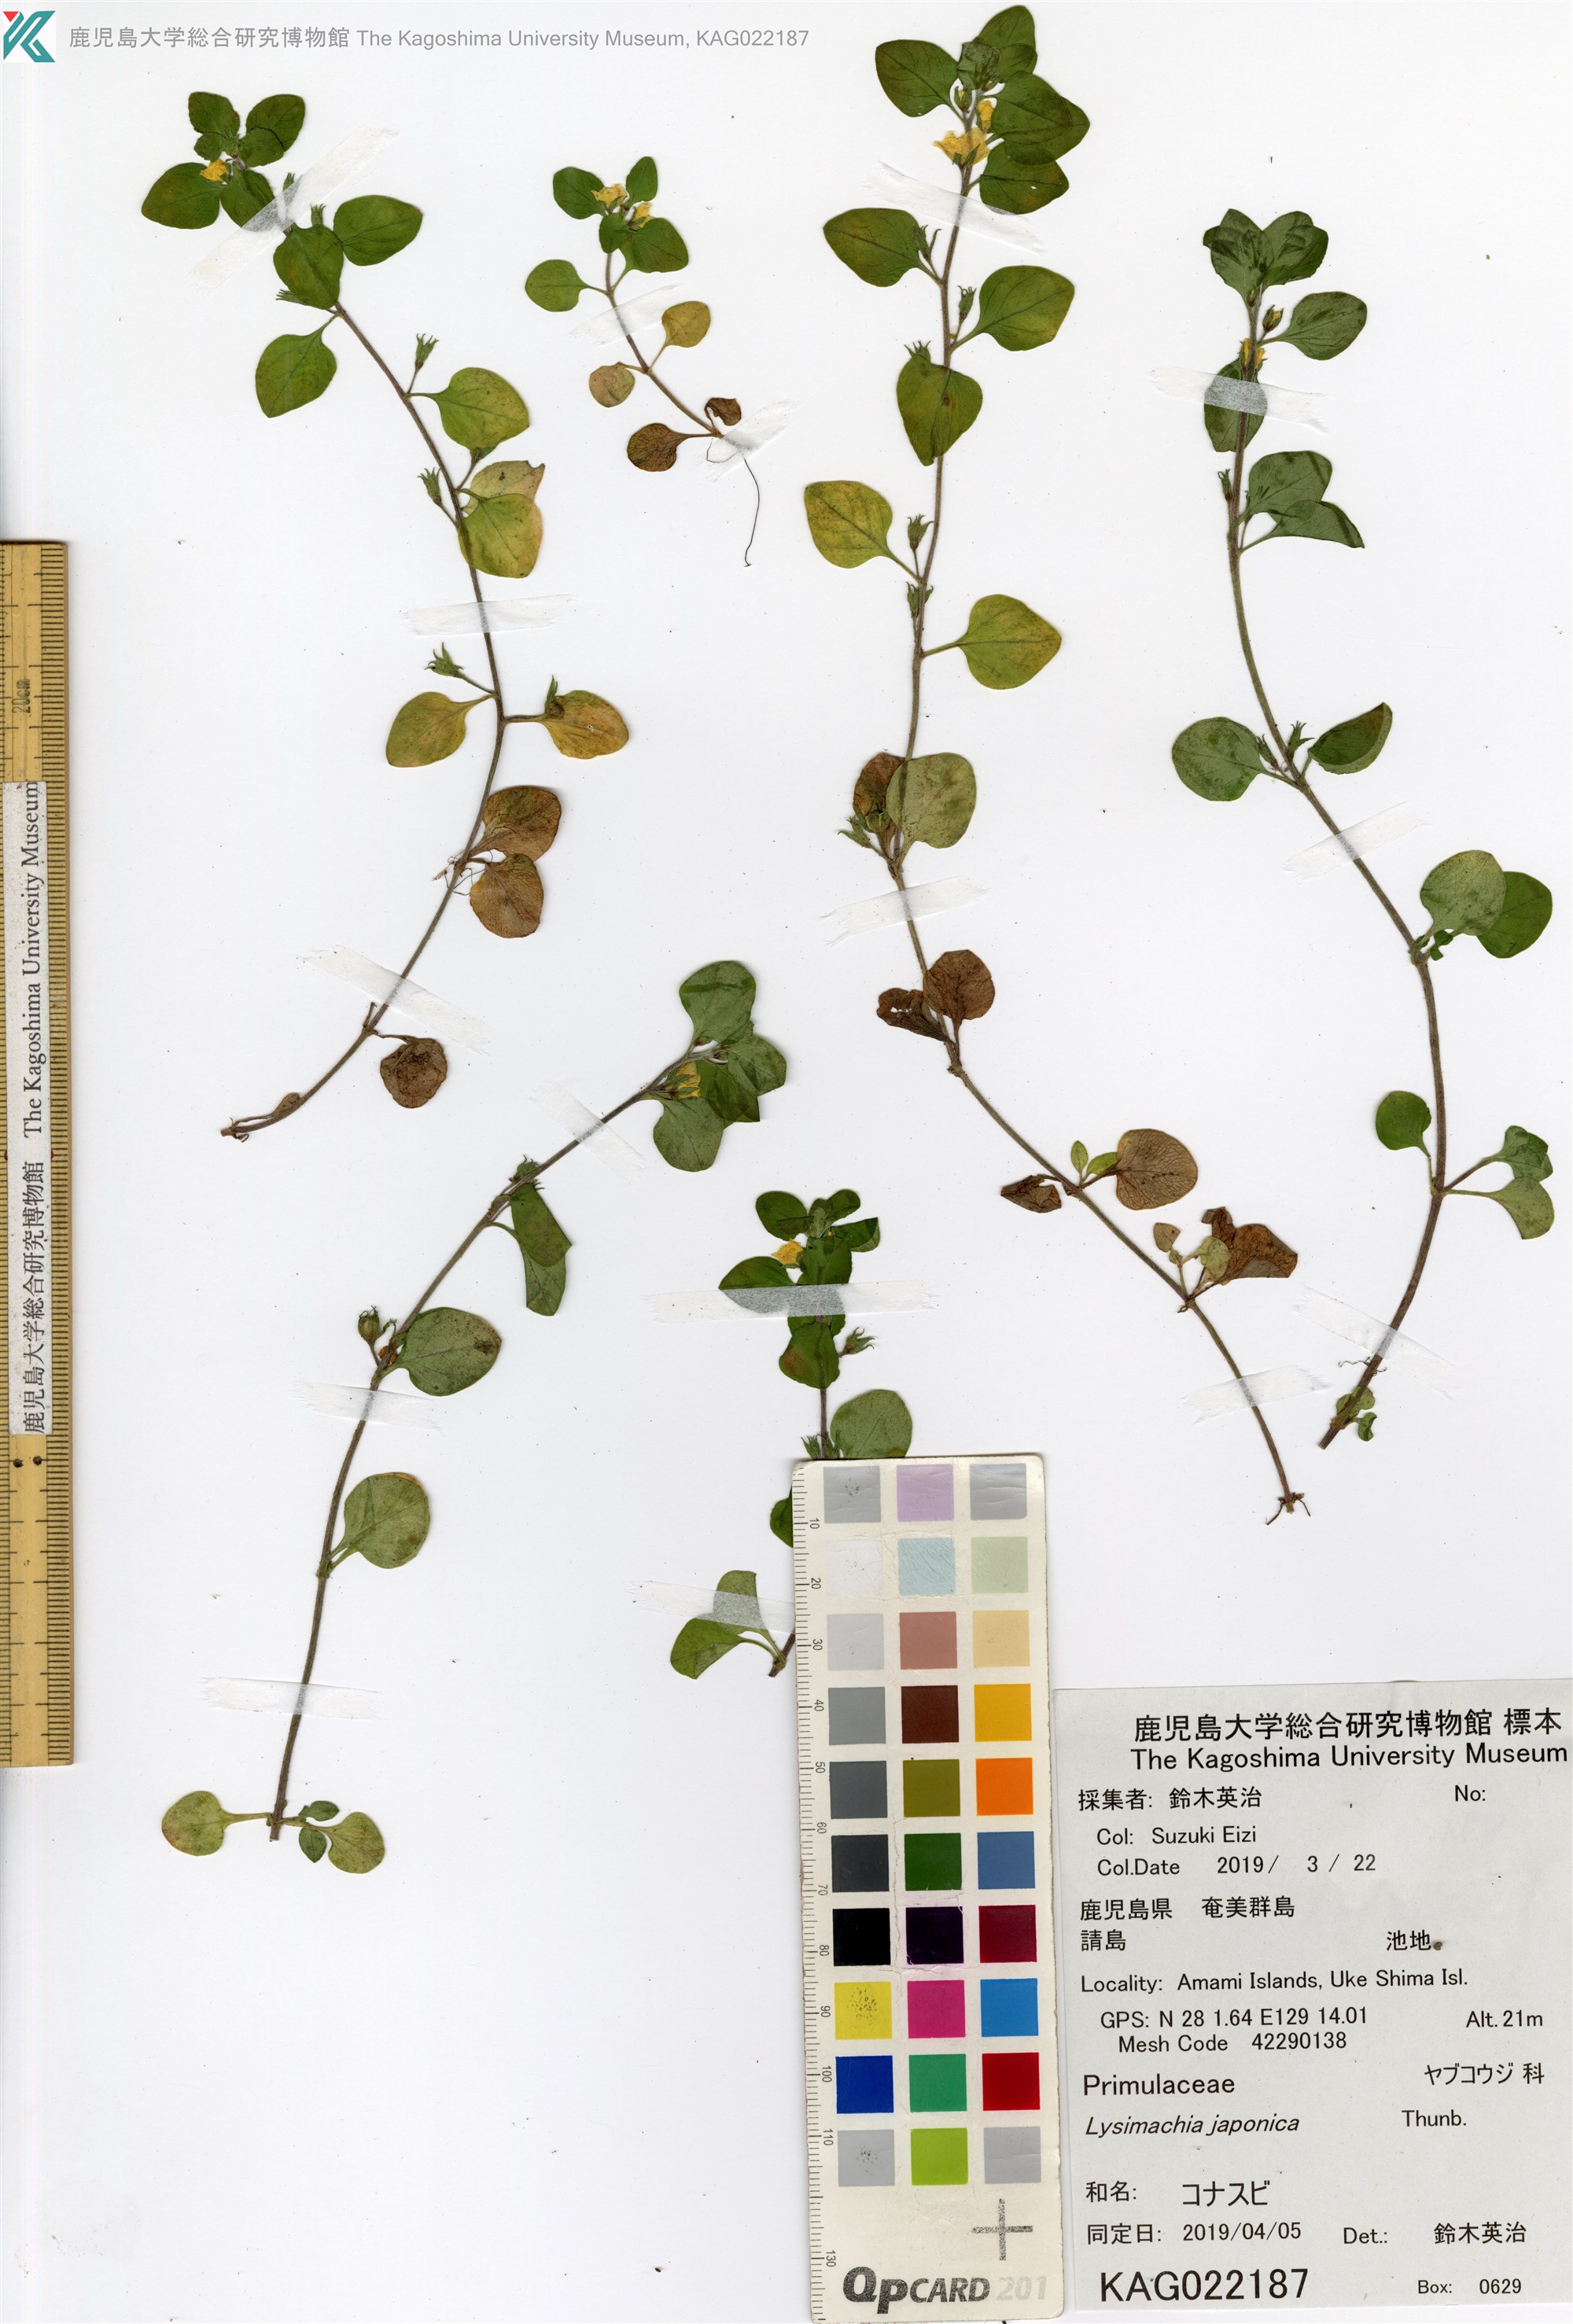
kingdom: Plantae
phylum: Tracheophyta
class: Magnoliopsida
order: Ericales
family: Primulaceae
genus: Lysimachia
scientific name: Lysimachia japonica
